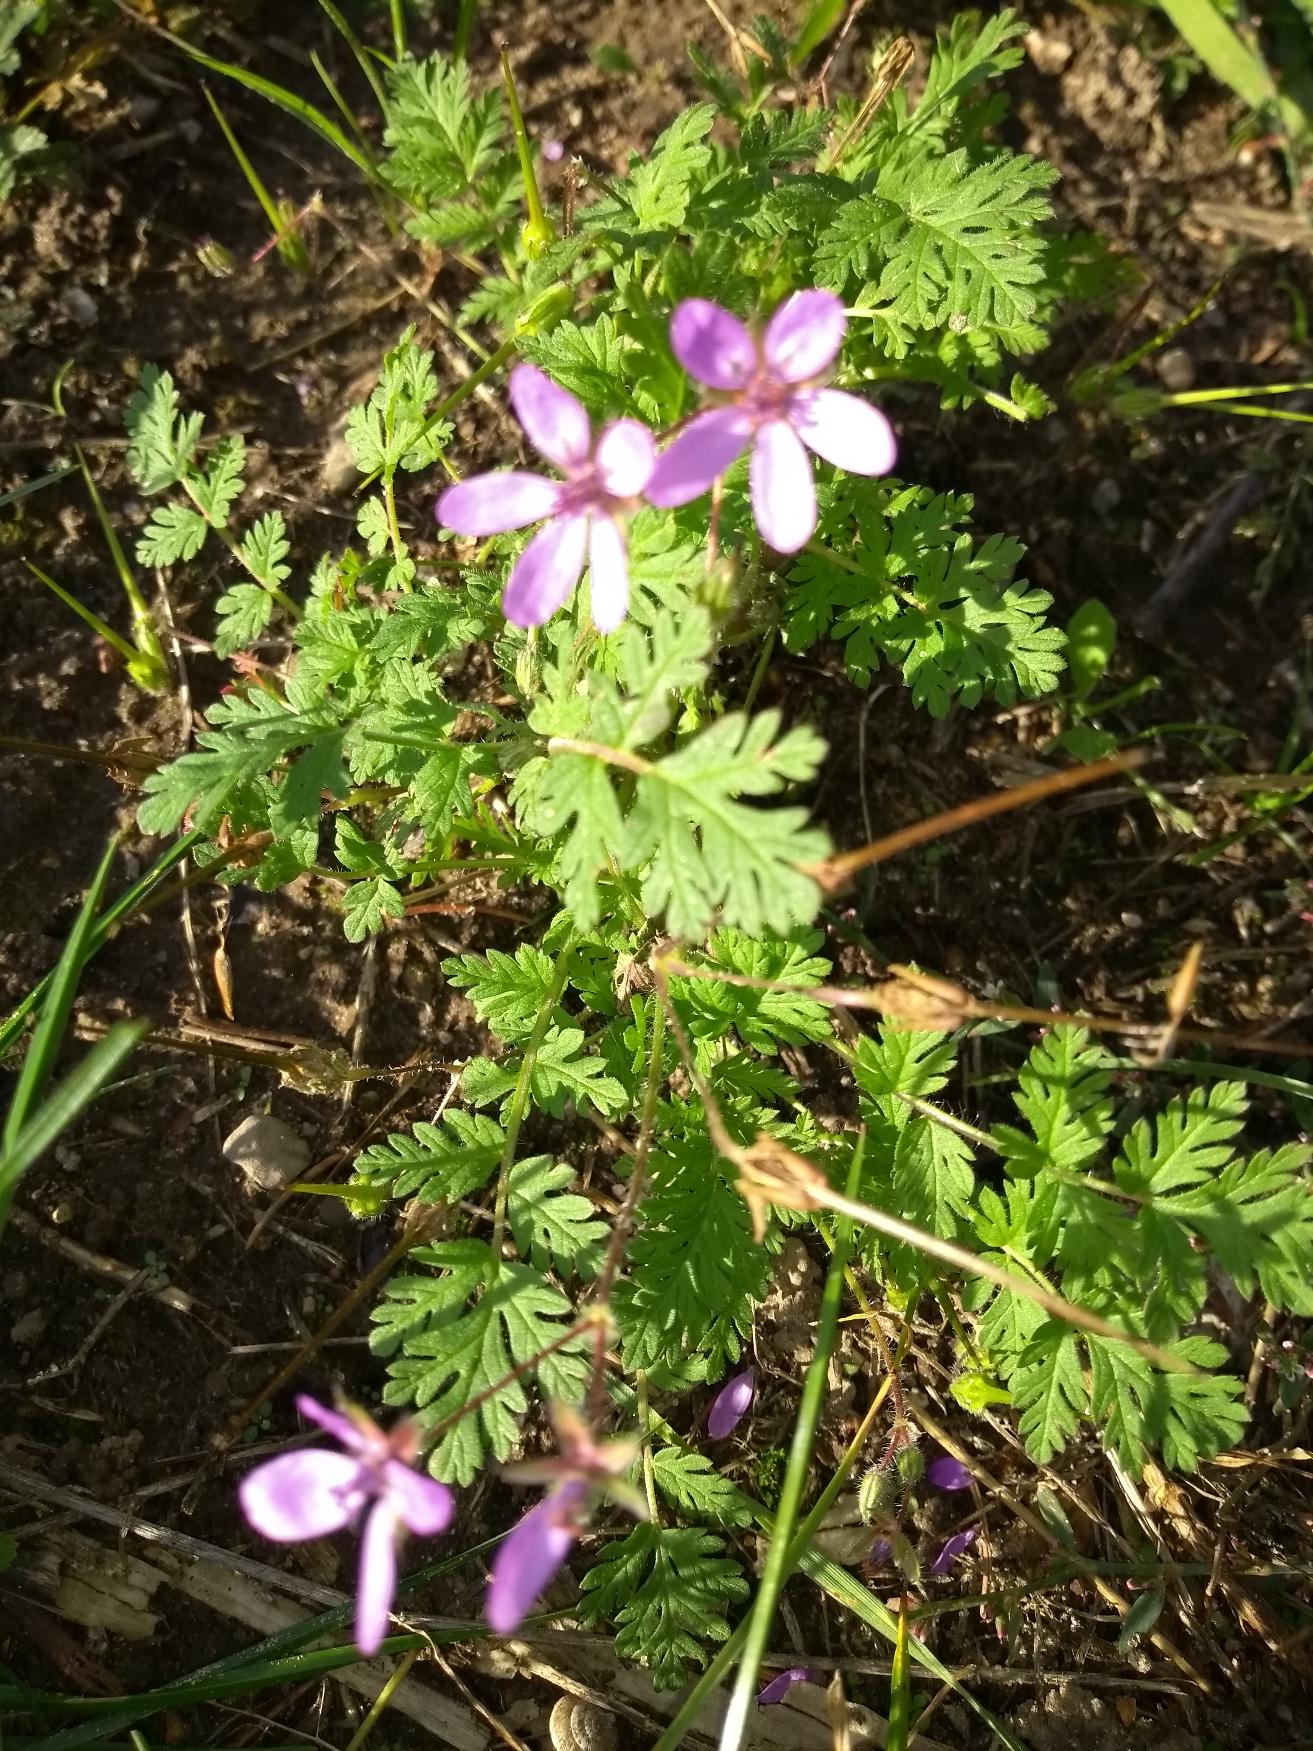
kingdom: Plantae
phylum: Tracheophyta
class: Magnoliopsida
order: Geraniales
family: Geraniaceae
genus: Erodium
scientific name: Erodium cicutarium
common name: Hejrenæb
